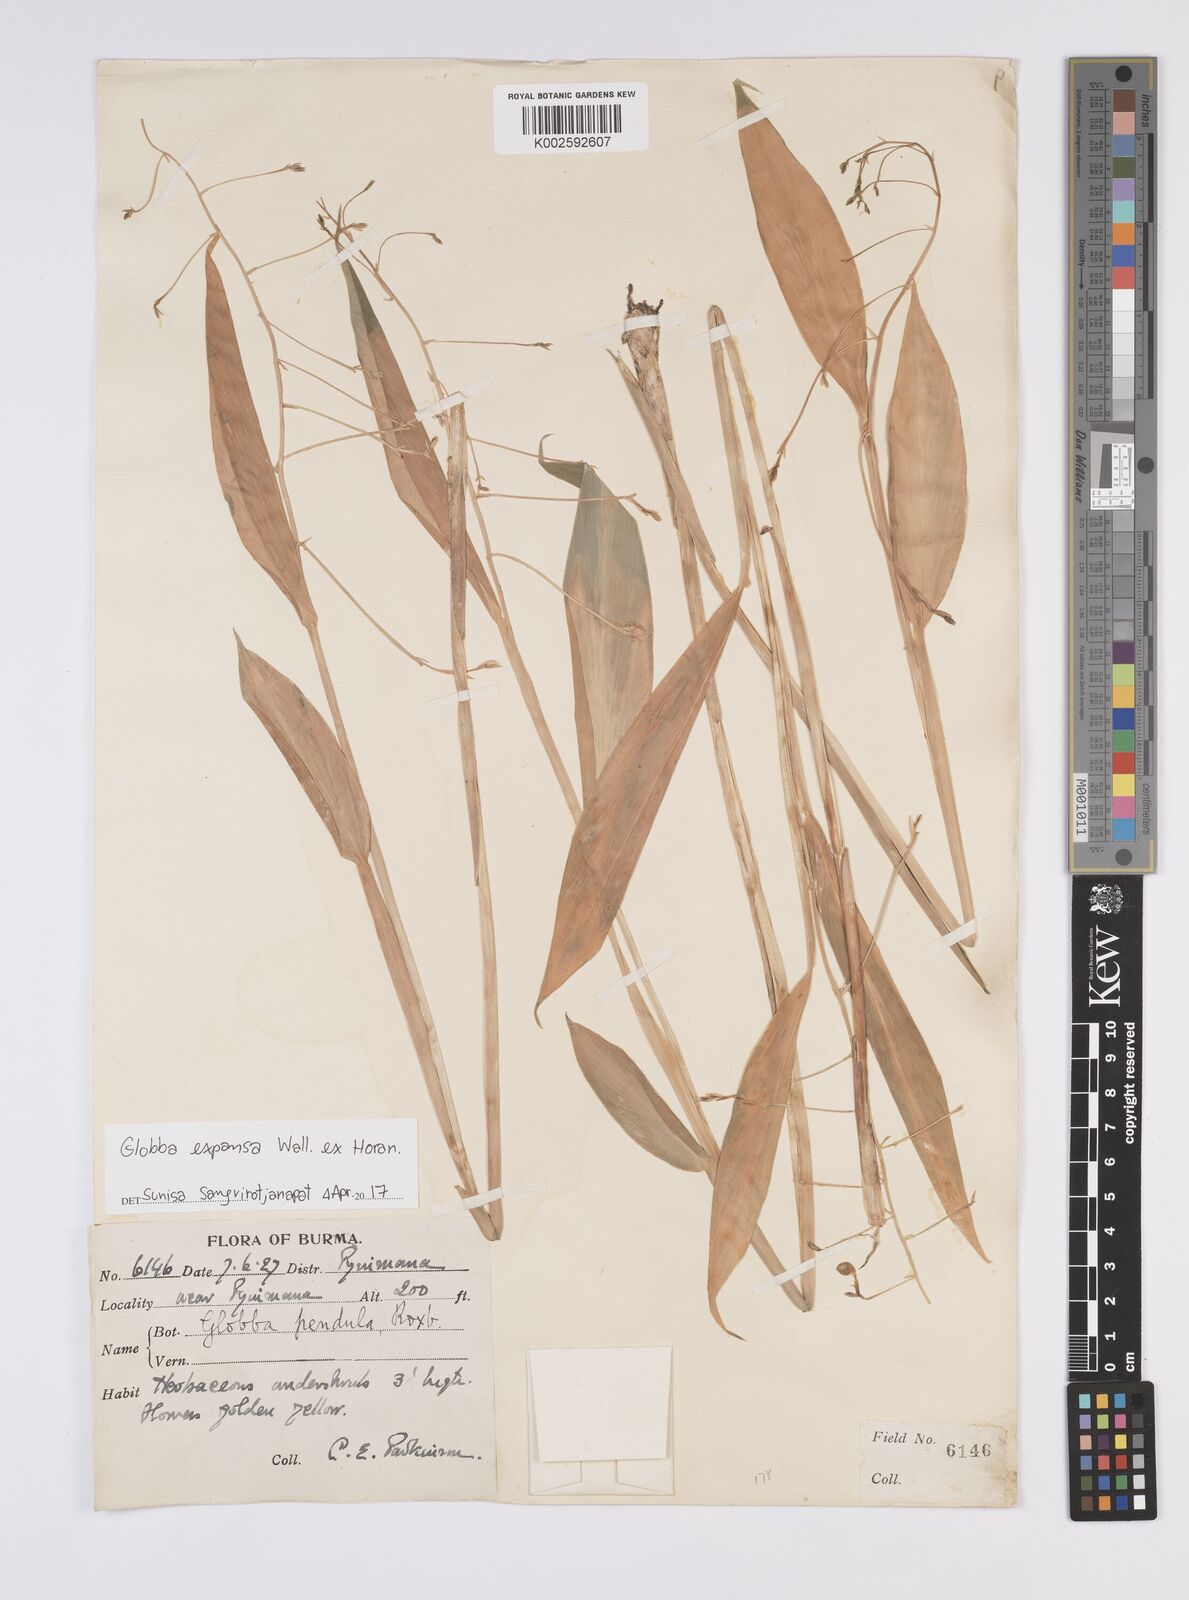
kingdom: Plantae
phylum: Tracheophyta
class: Liliopsida
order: Zingiberales
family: Zingiberaceae
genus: Globba
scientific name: Globba expansa
